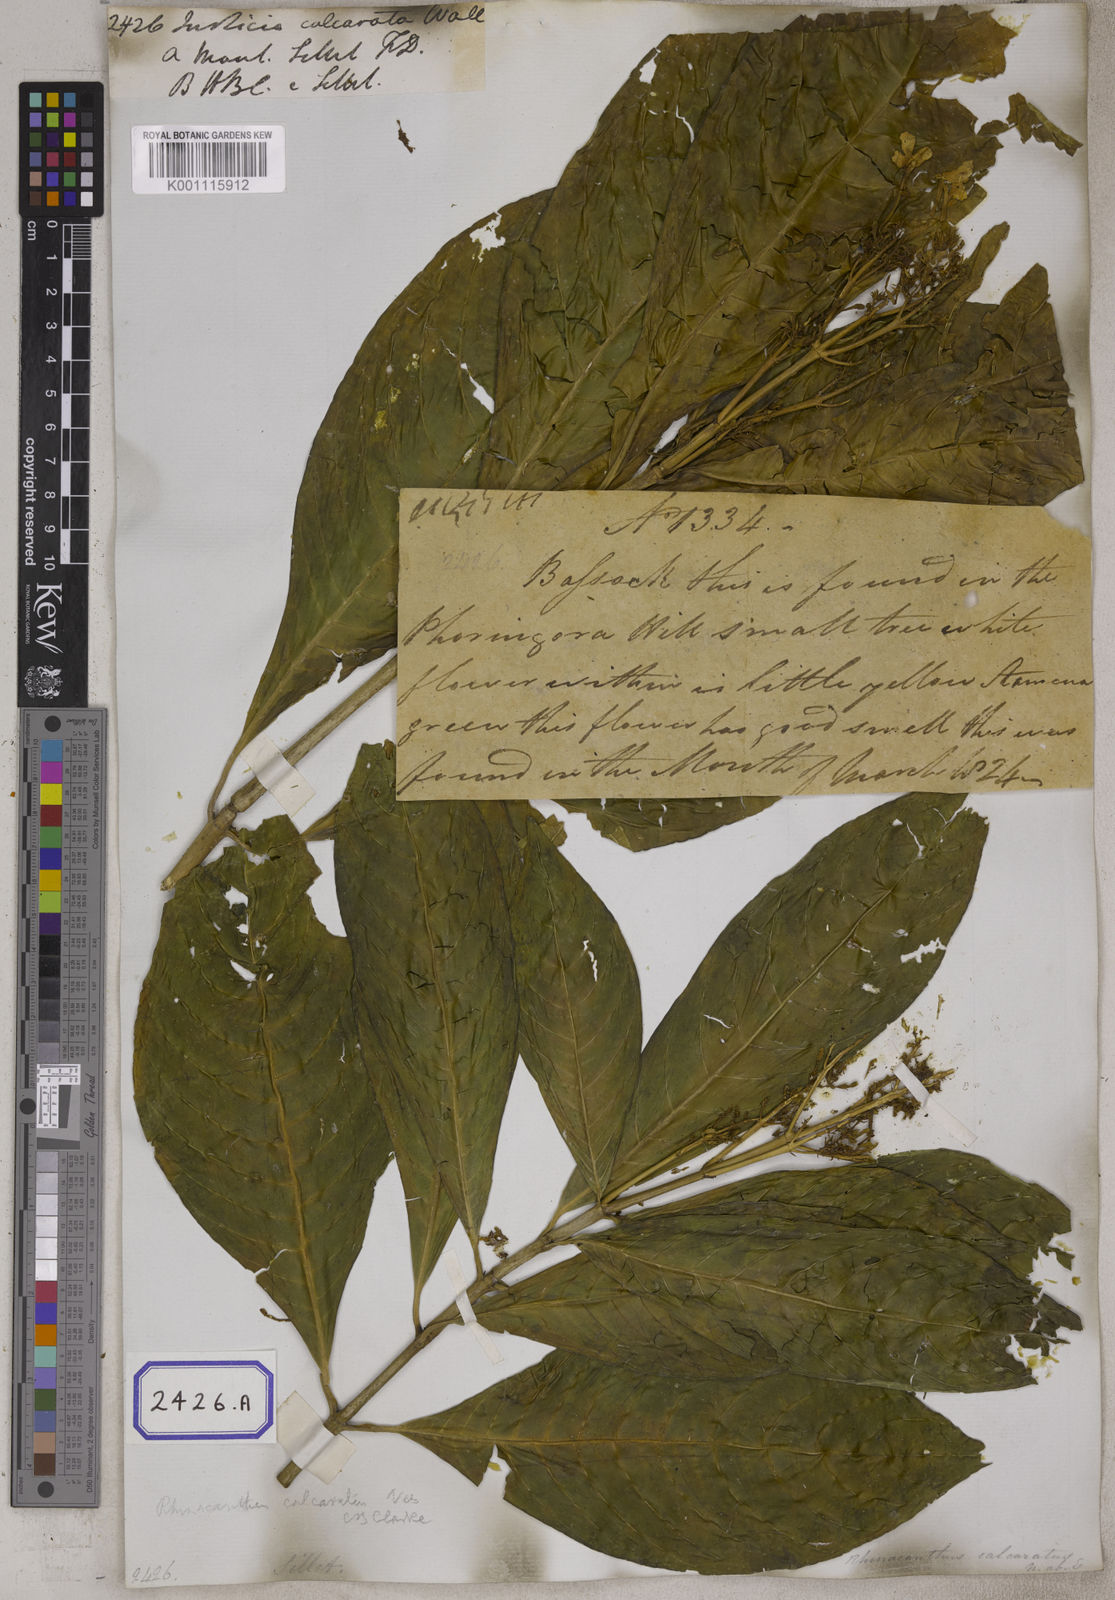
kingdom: Plantae
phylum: Tracheophyta
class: Magnoliopsida
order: Lamiales
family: Acanthaceae
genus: Rhinacanthus
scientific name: Rhinacanthus calcaratus
